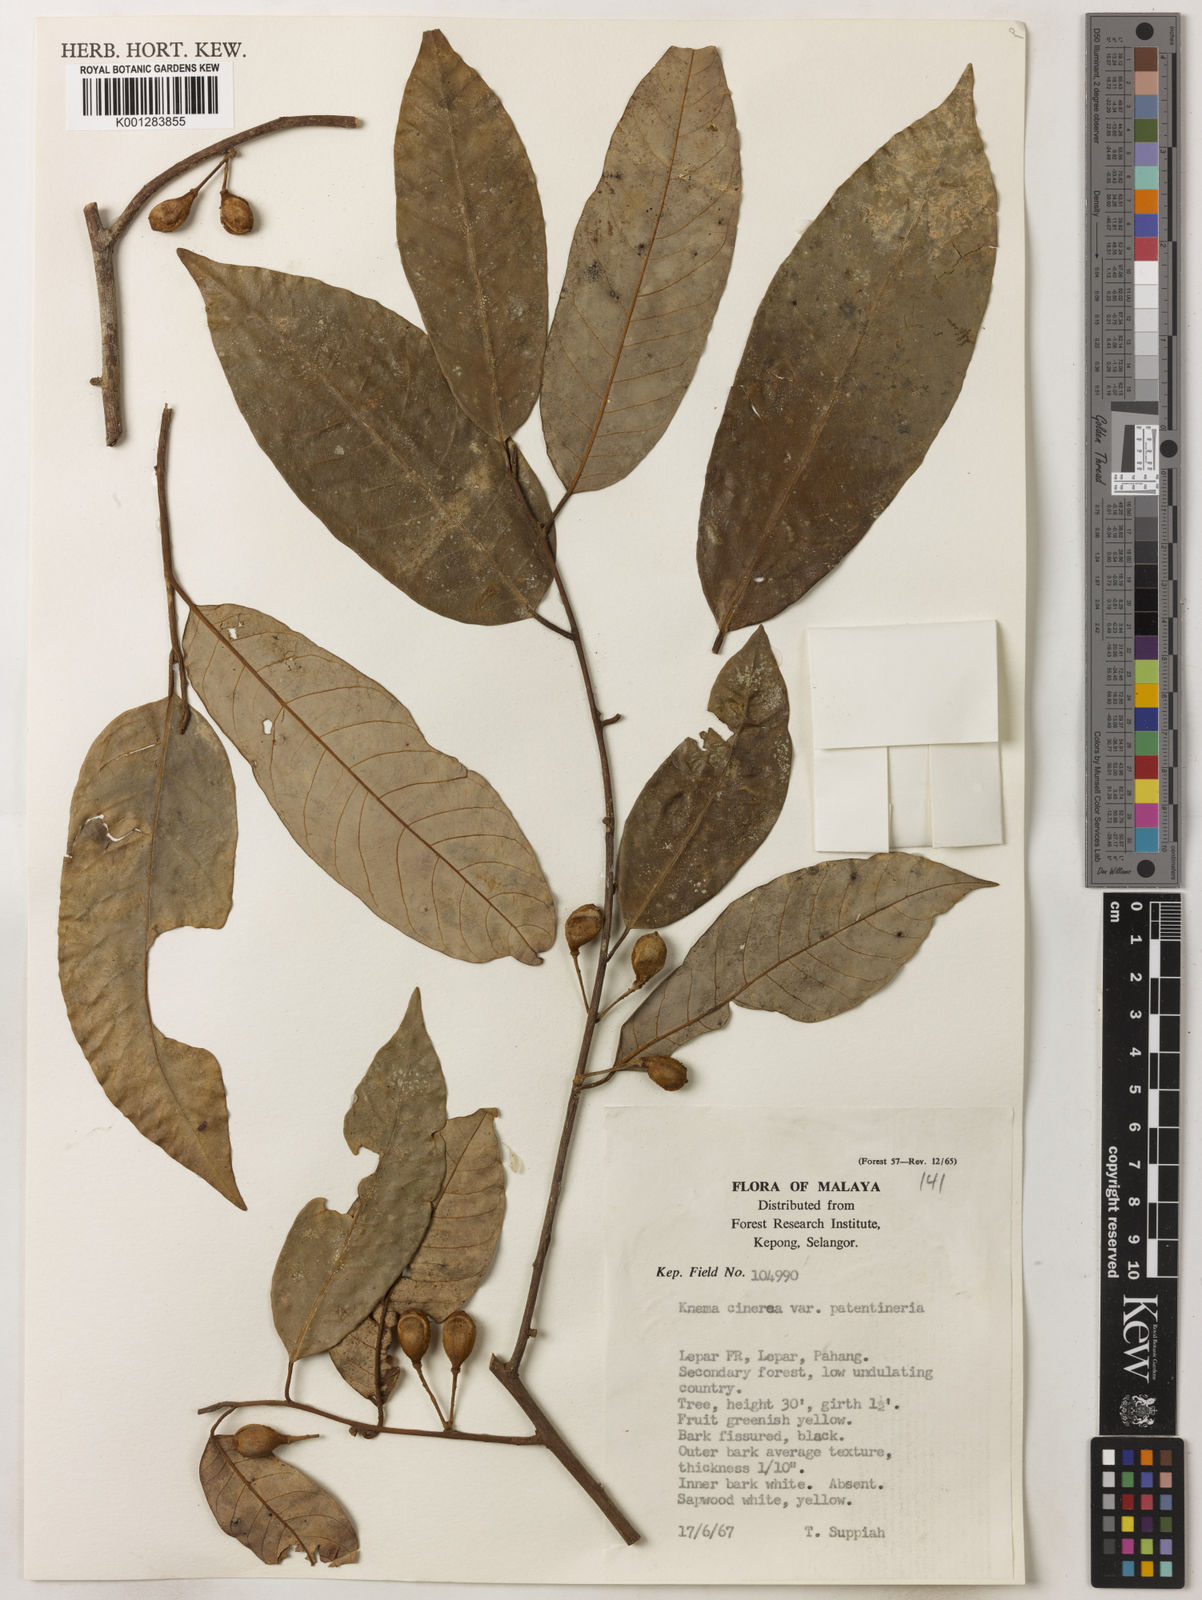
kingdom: Plantae
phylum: Tracheophyta
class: Magnoliopsida
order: Magnoliales
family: Myristicaceae
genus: Knema
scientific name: Knema
